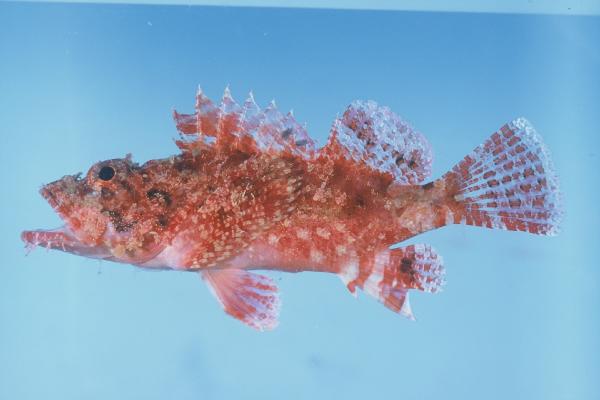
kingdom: Animalia
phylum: Chordata
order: Scorpaeniformes
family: Scorpaenidae
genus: Scorpaenopsis
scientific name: Scorpaenopsis longispina
